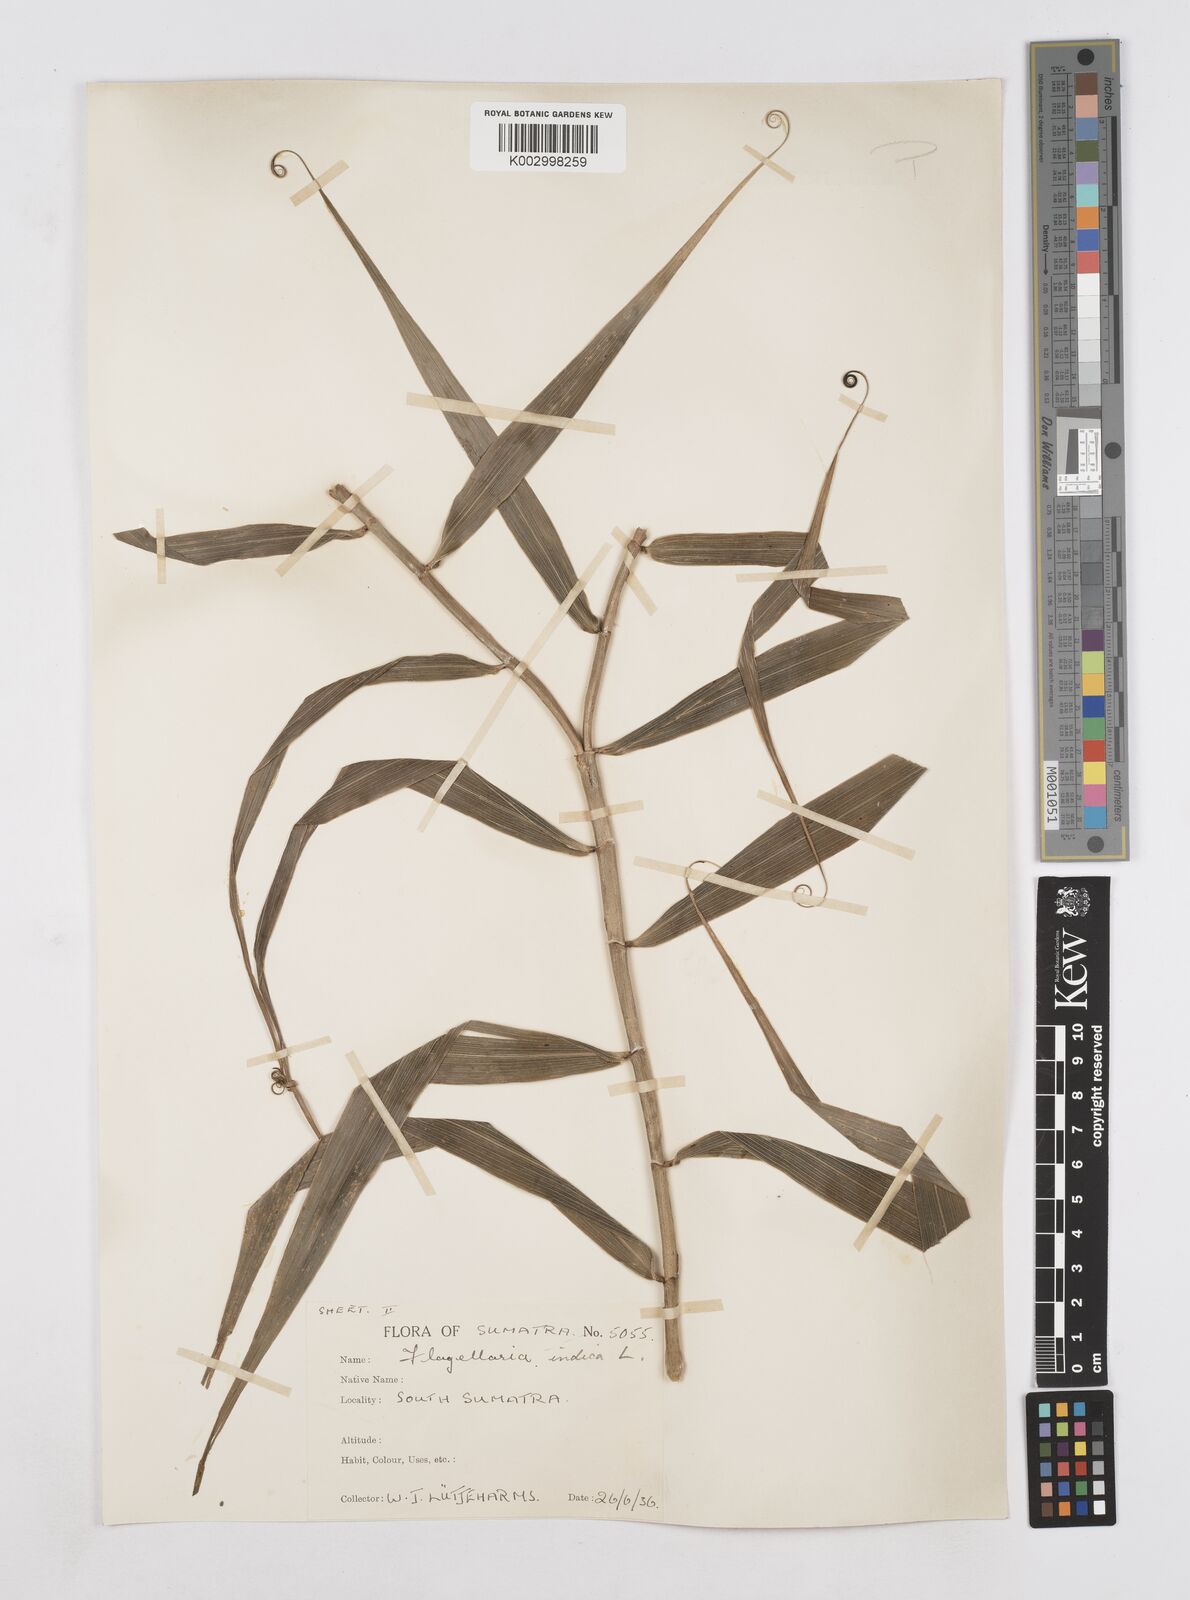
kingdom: Plantae
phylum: Tracheophyta
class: Liliopsida
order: Poales
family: Flagellariaceae
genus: Flagellaria
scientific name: Flagellaria indica
